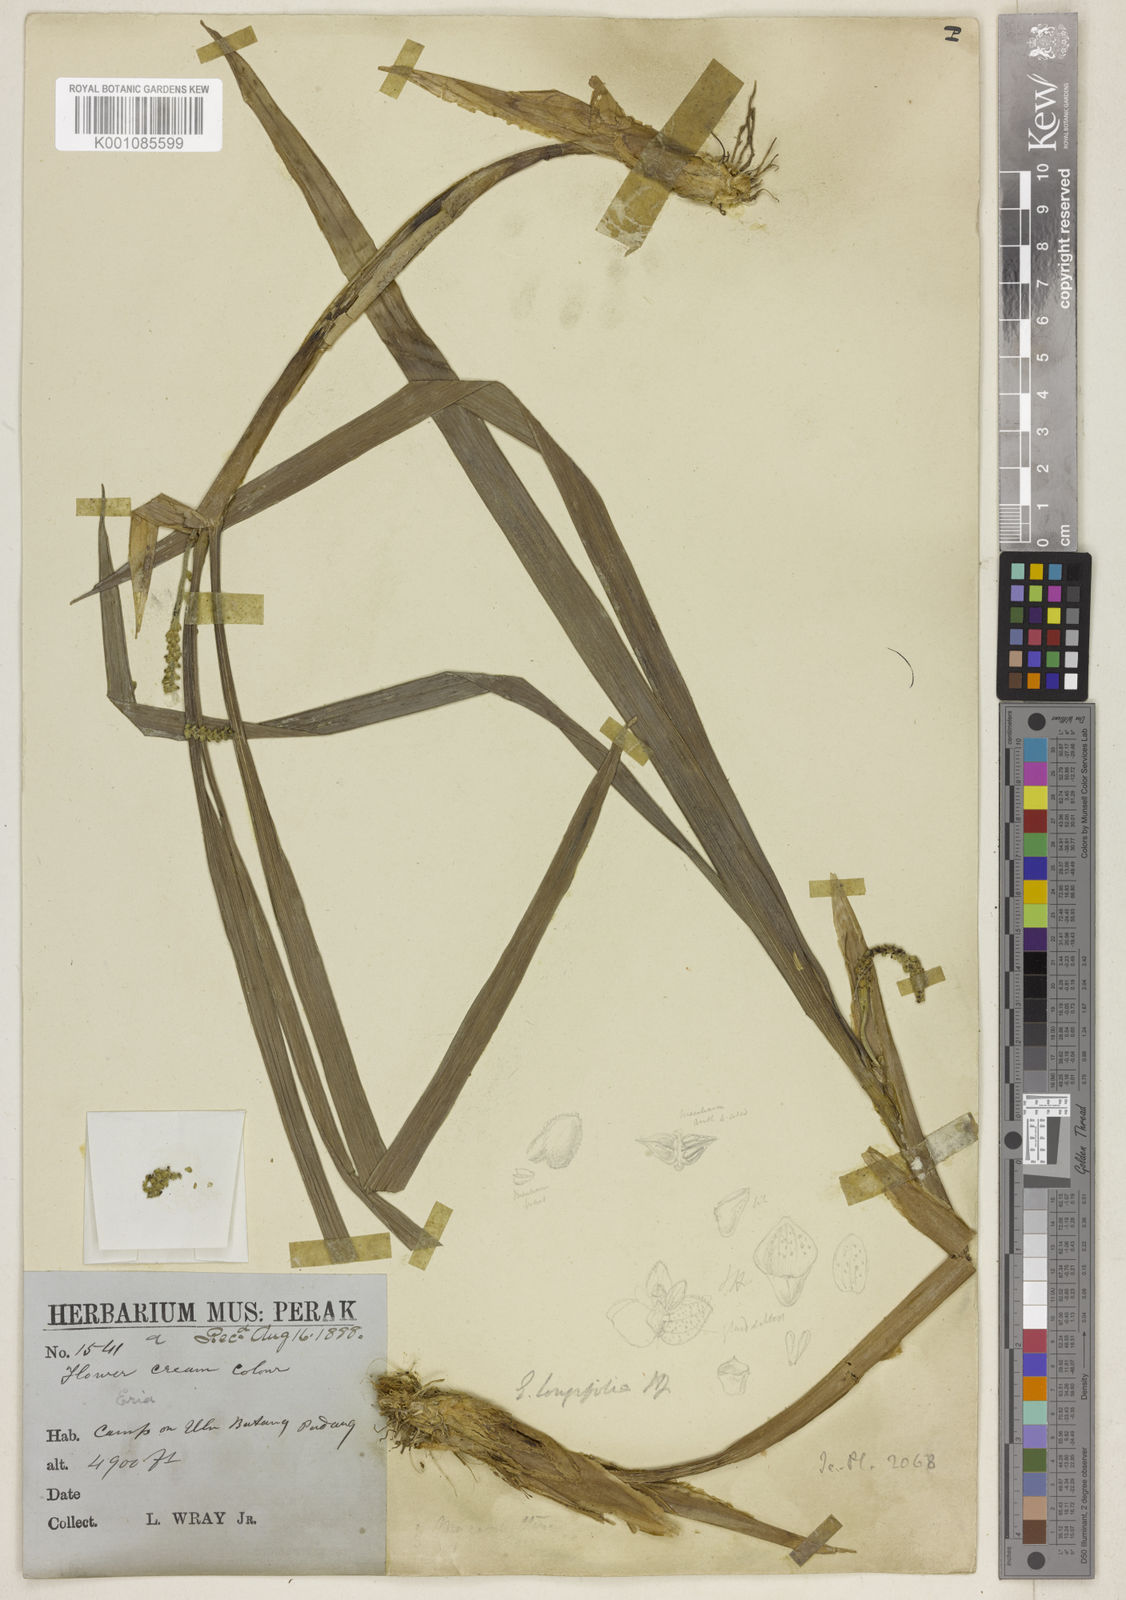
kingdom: Plantae
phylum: Tracheophyta
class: Liliopsida
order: Asparagales
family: Orchidaceae
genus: Ascidieria
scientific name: Ascidieria longifolia
